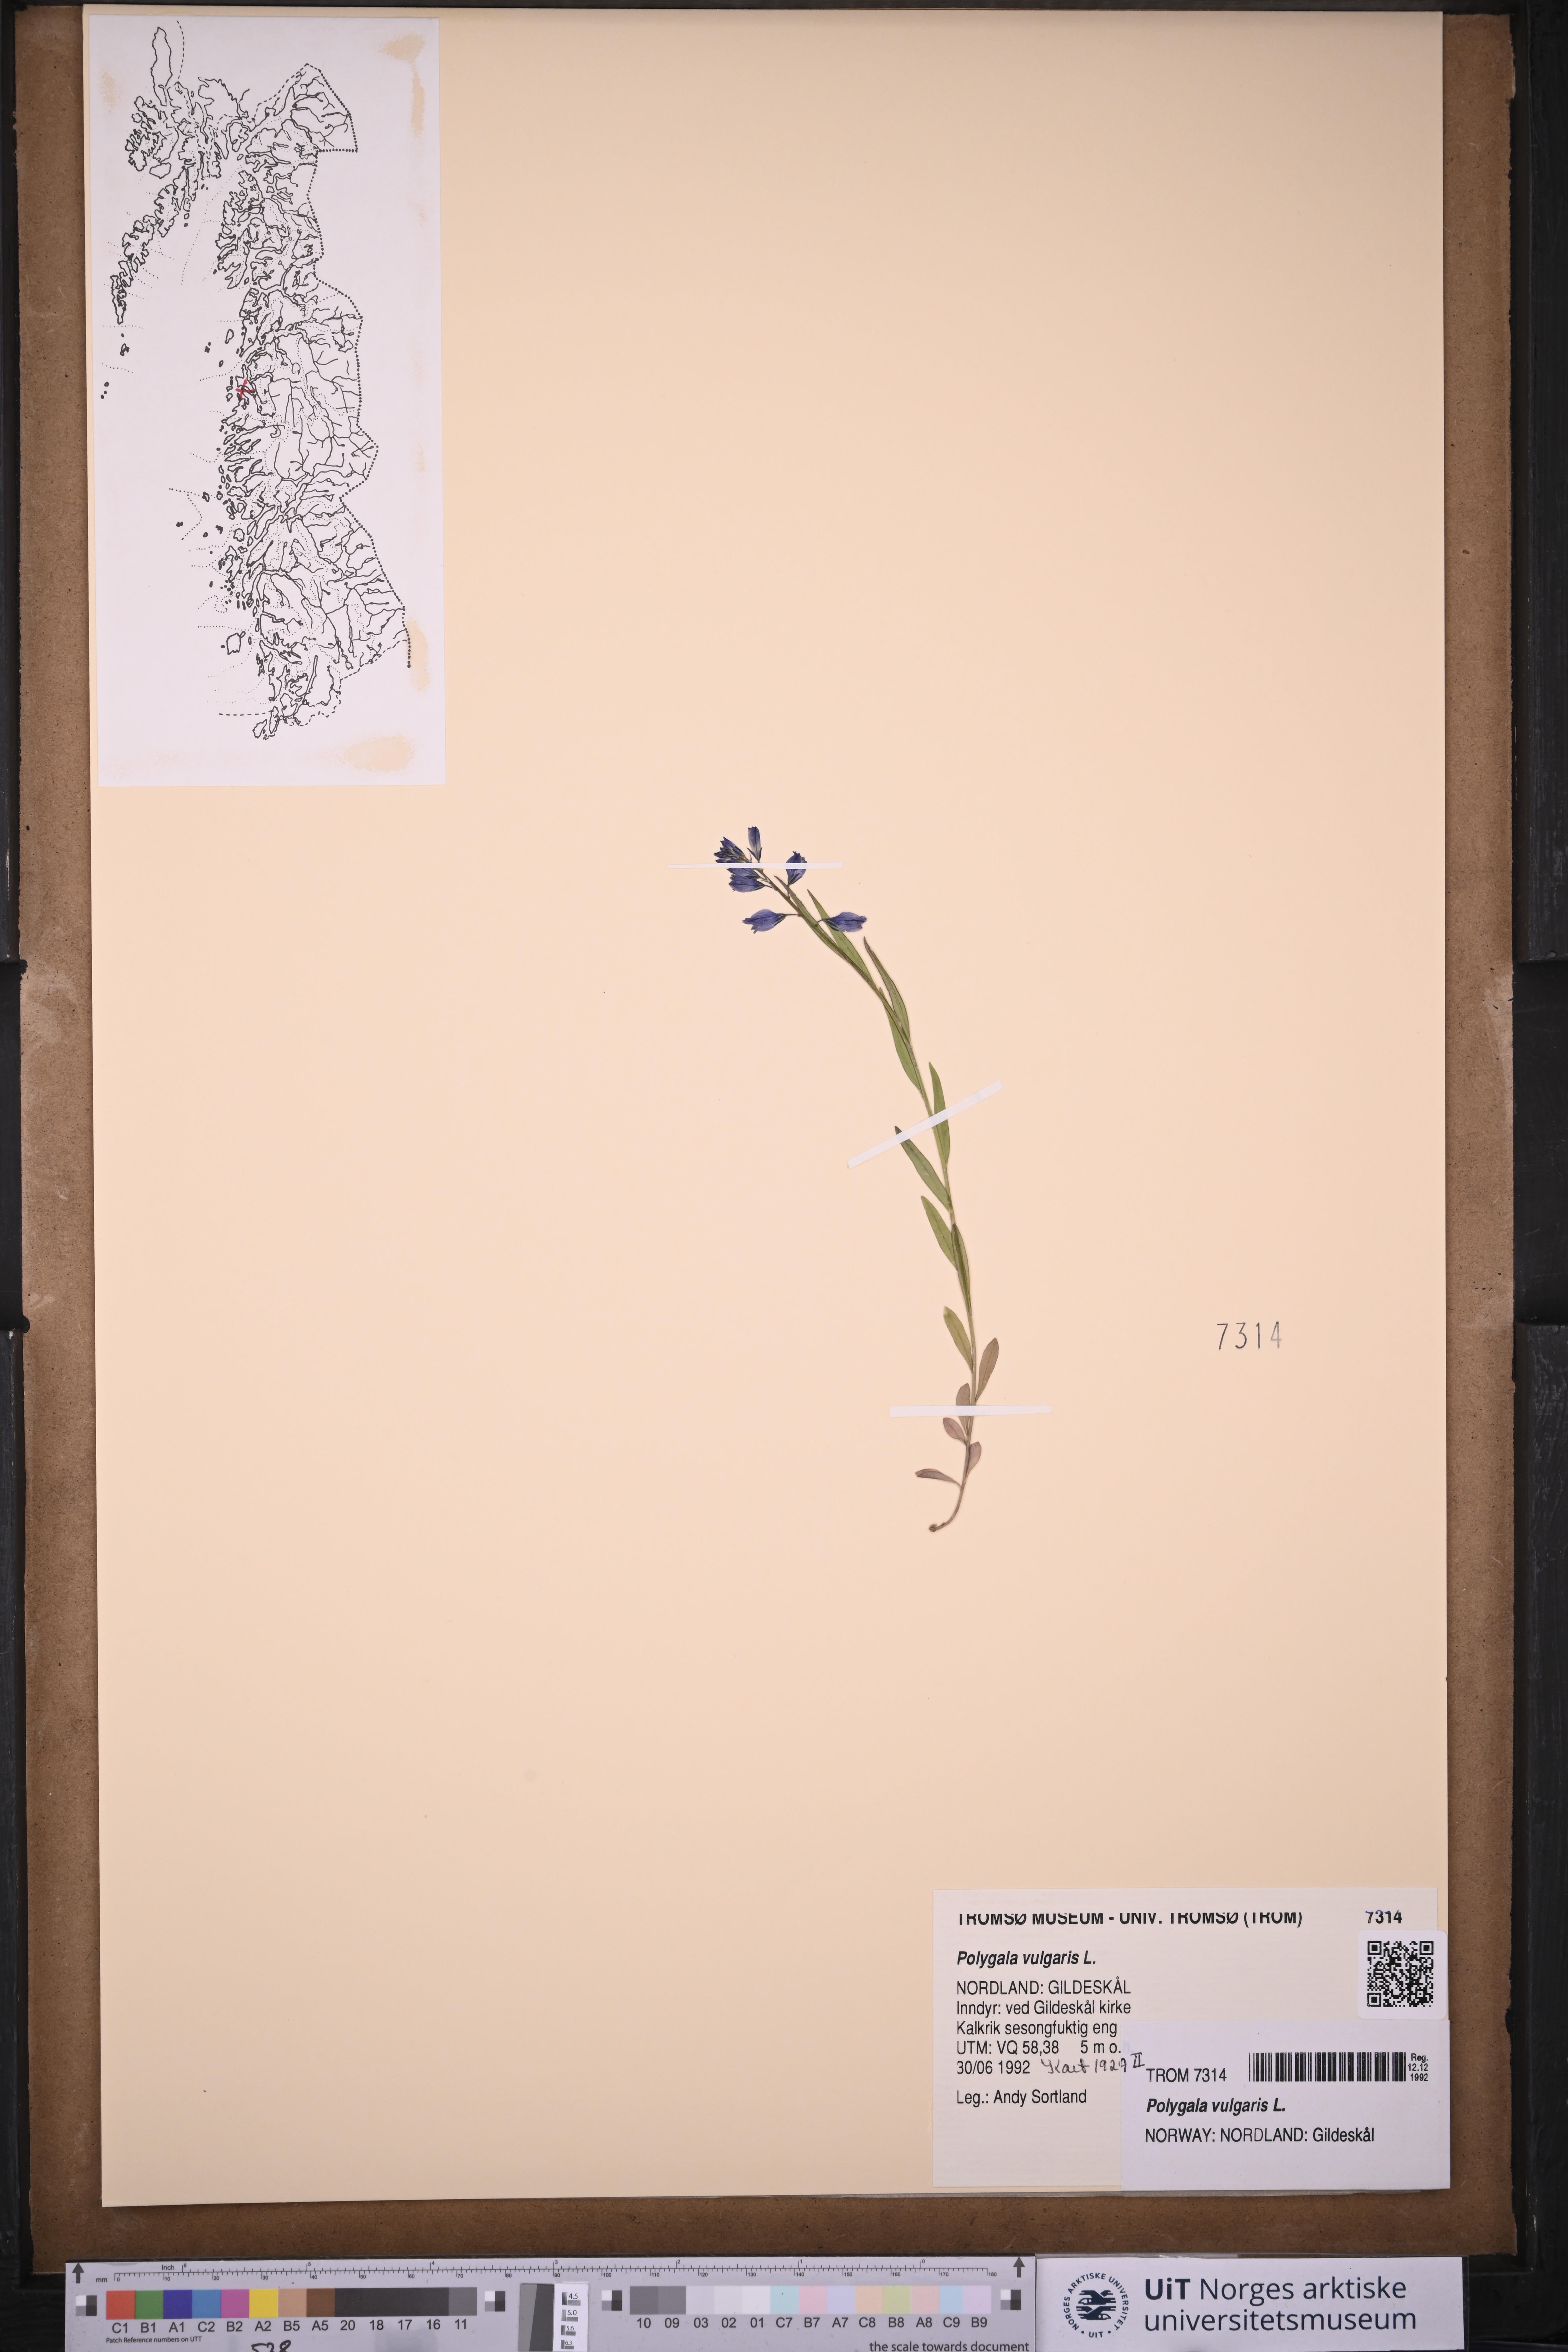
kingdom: Plantae
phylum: Tracheophyta
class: Magnoliopsida
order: Fabales
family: Polygalaceae
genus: Polygala
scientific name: Polygala vulgaris
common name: Common milkwort
